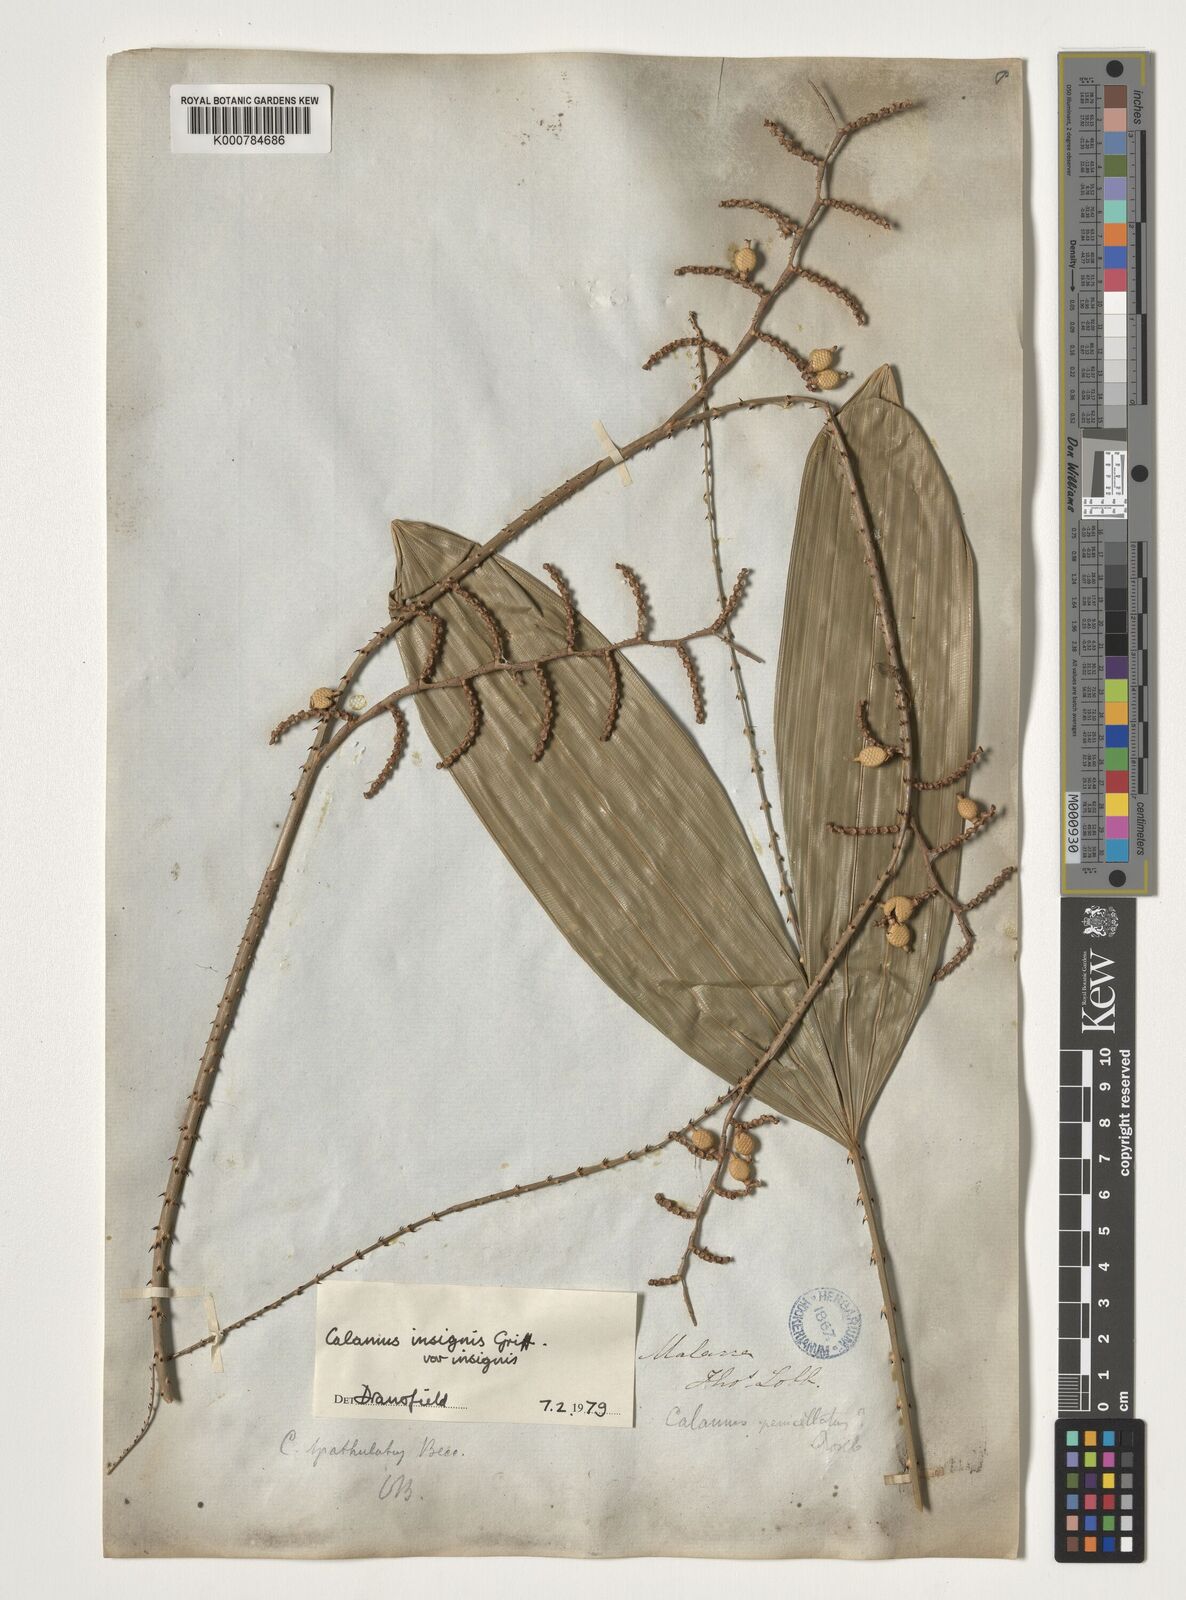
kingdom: Plantae
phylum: Tracheophyta
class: Liliopsida
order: Arecales
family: Arecaceae
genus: Calamus
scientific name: Calamus insignis
